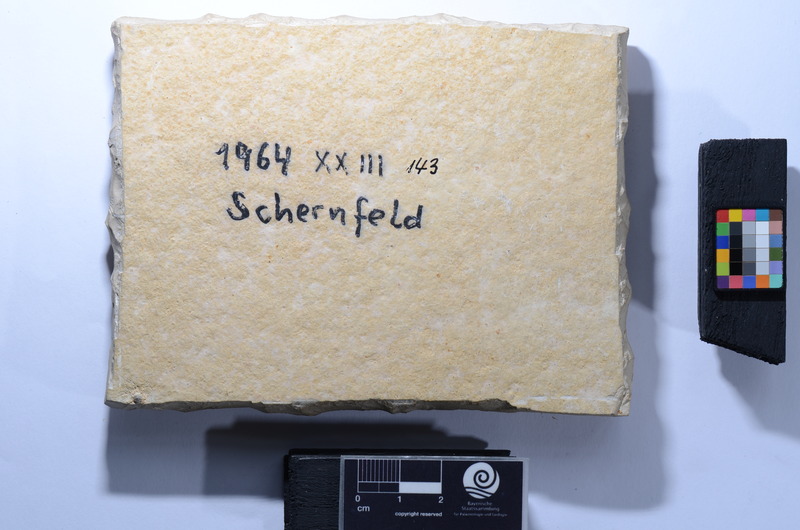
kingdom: Animalia
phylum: Chordata
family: Macrosemiidae
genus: Propterus
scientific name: Propterus microstomus
